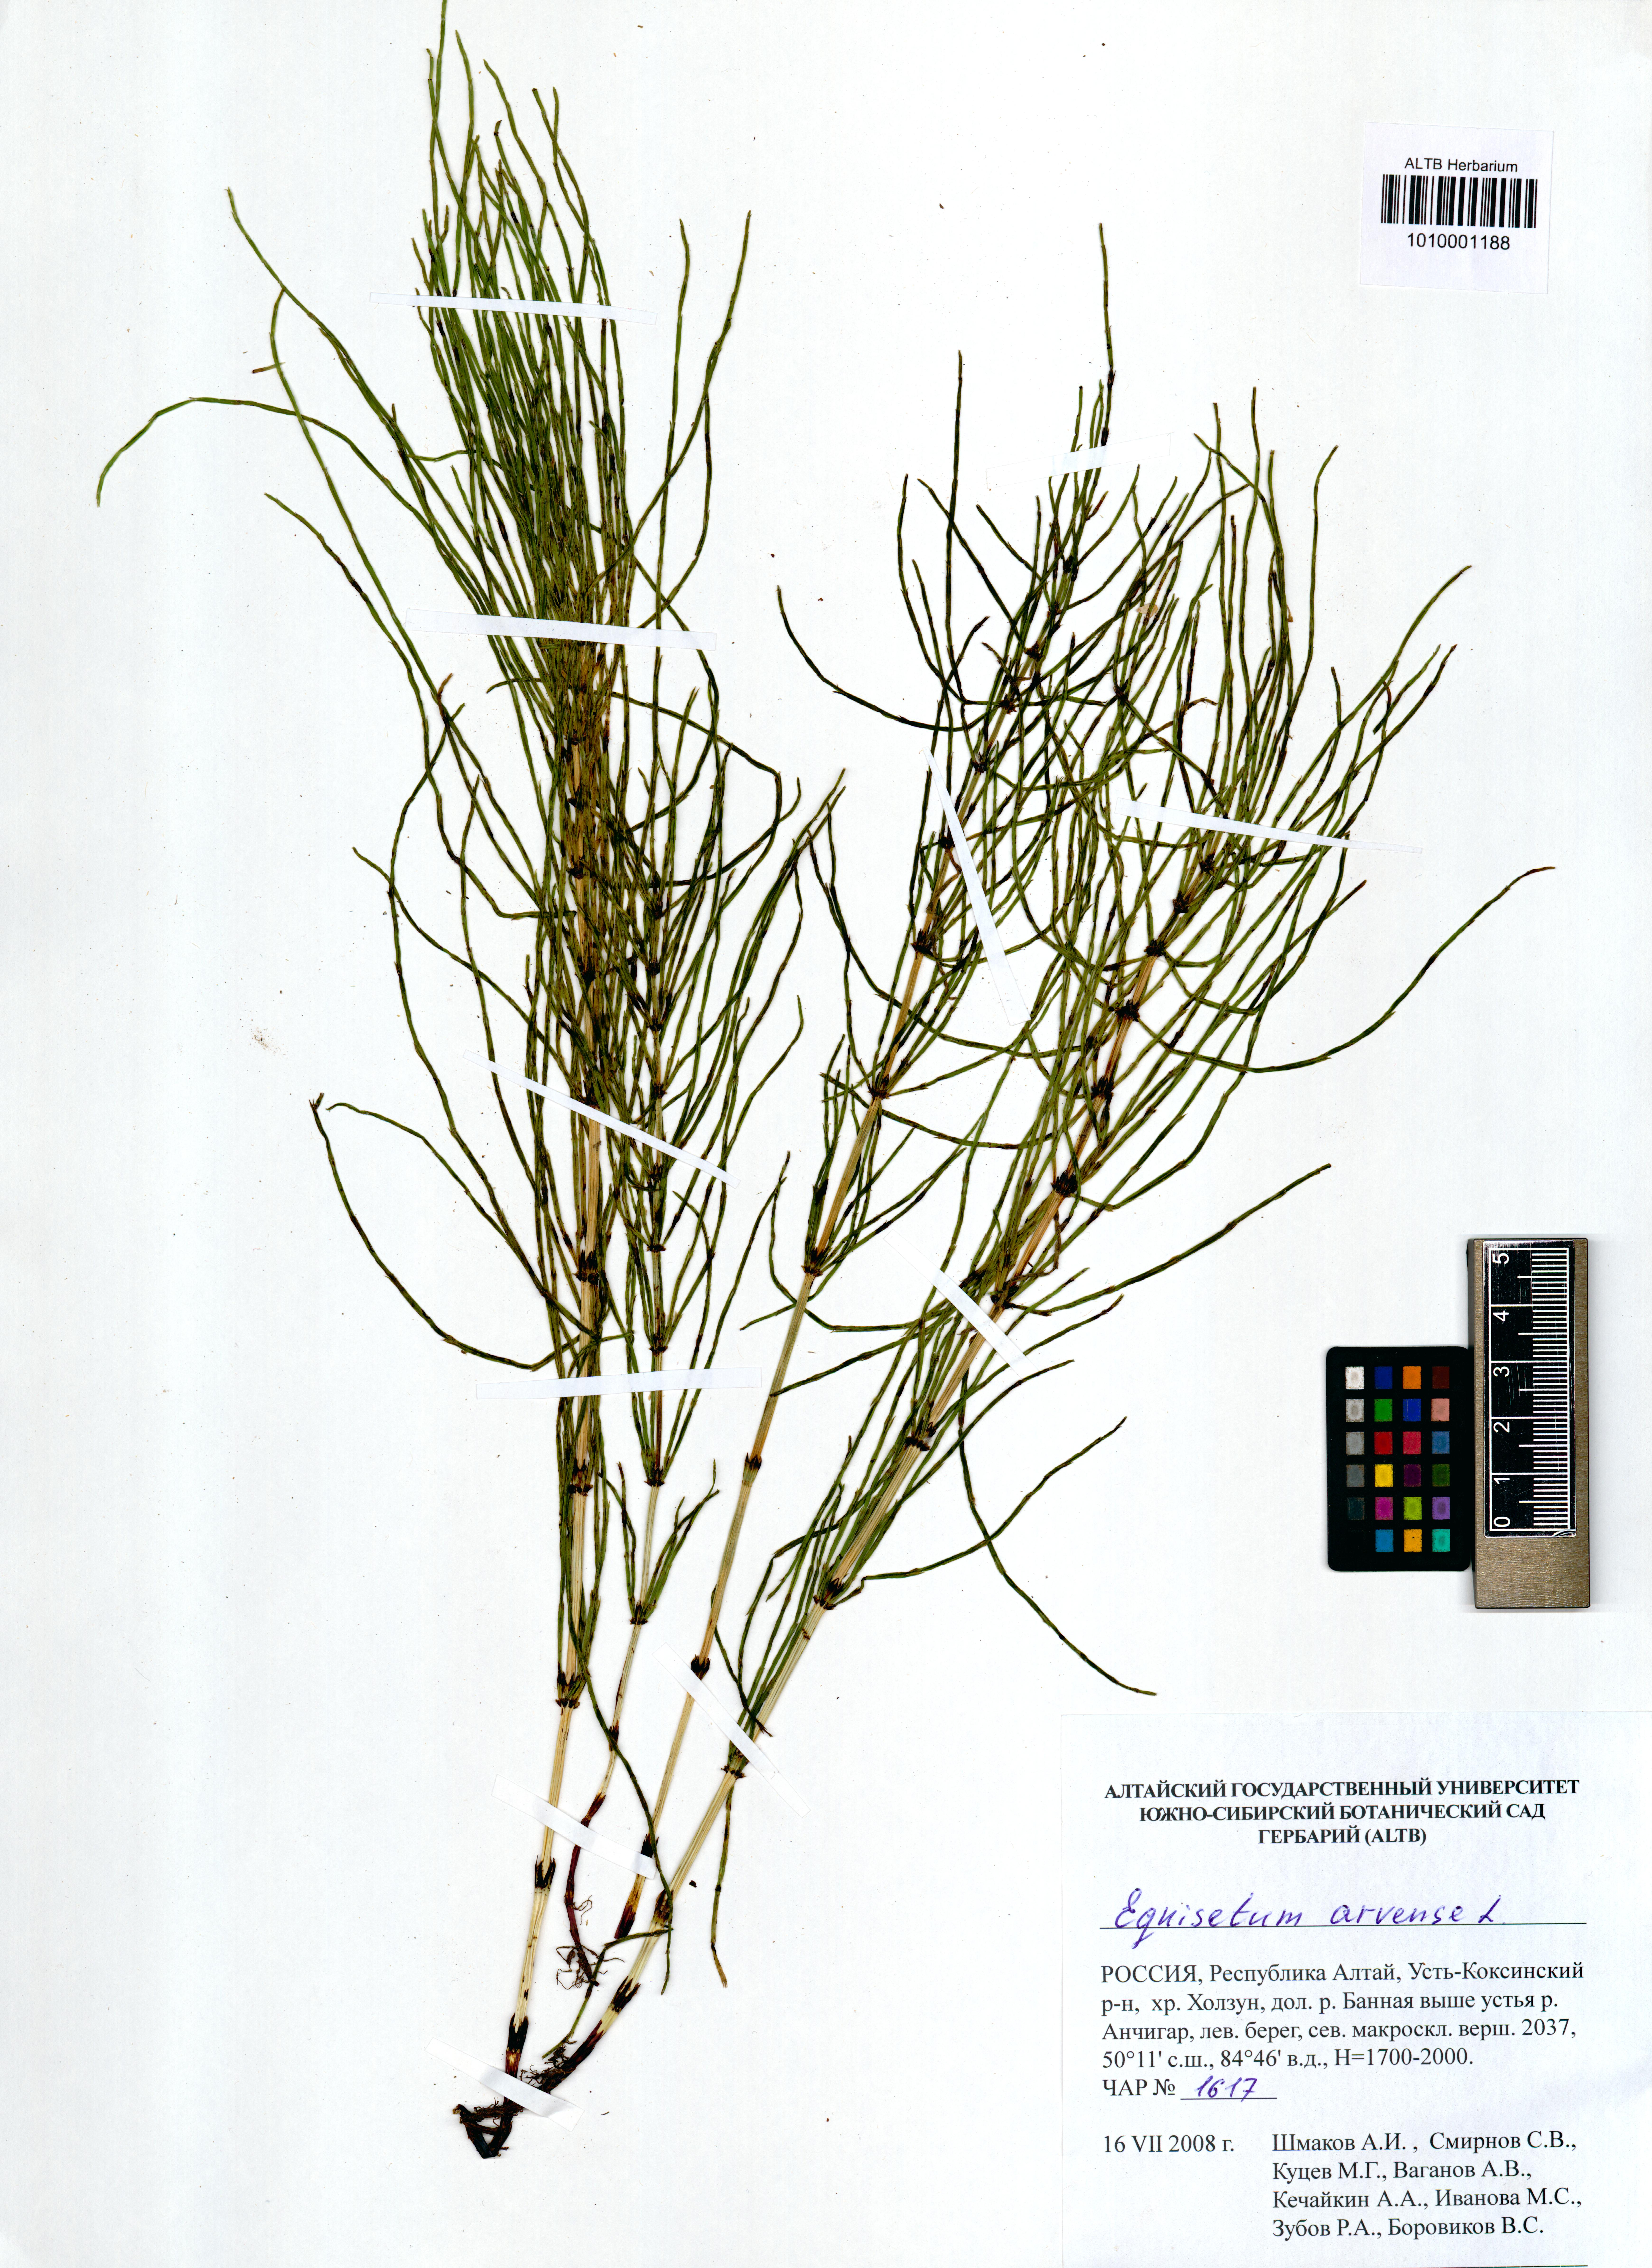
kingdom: Plantae
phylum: Tracheophyta
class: Polypodiopsida
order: Equisetales
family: Equisetaceae
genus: Equisetum
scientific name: Equisetum arvense
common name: Field horsetail
